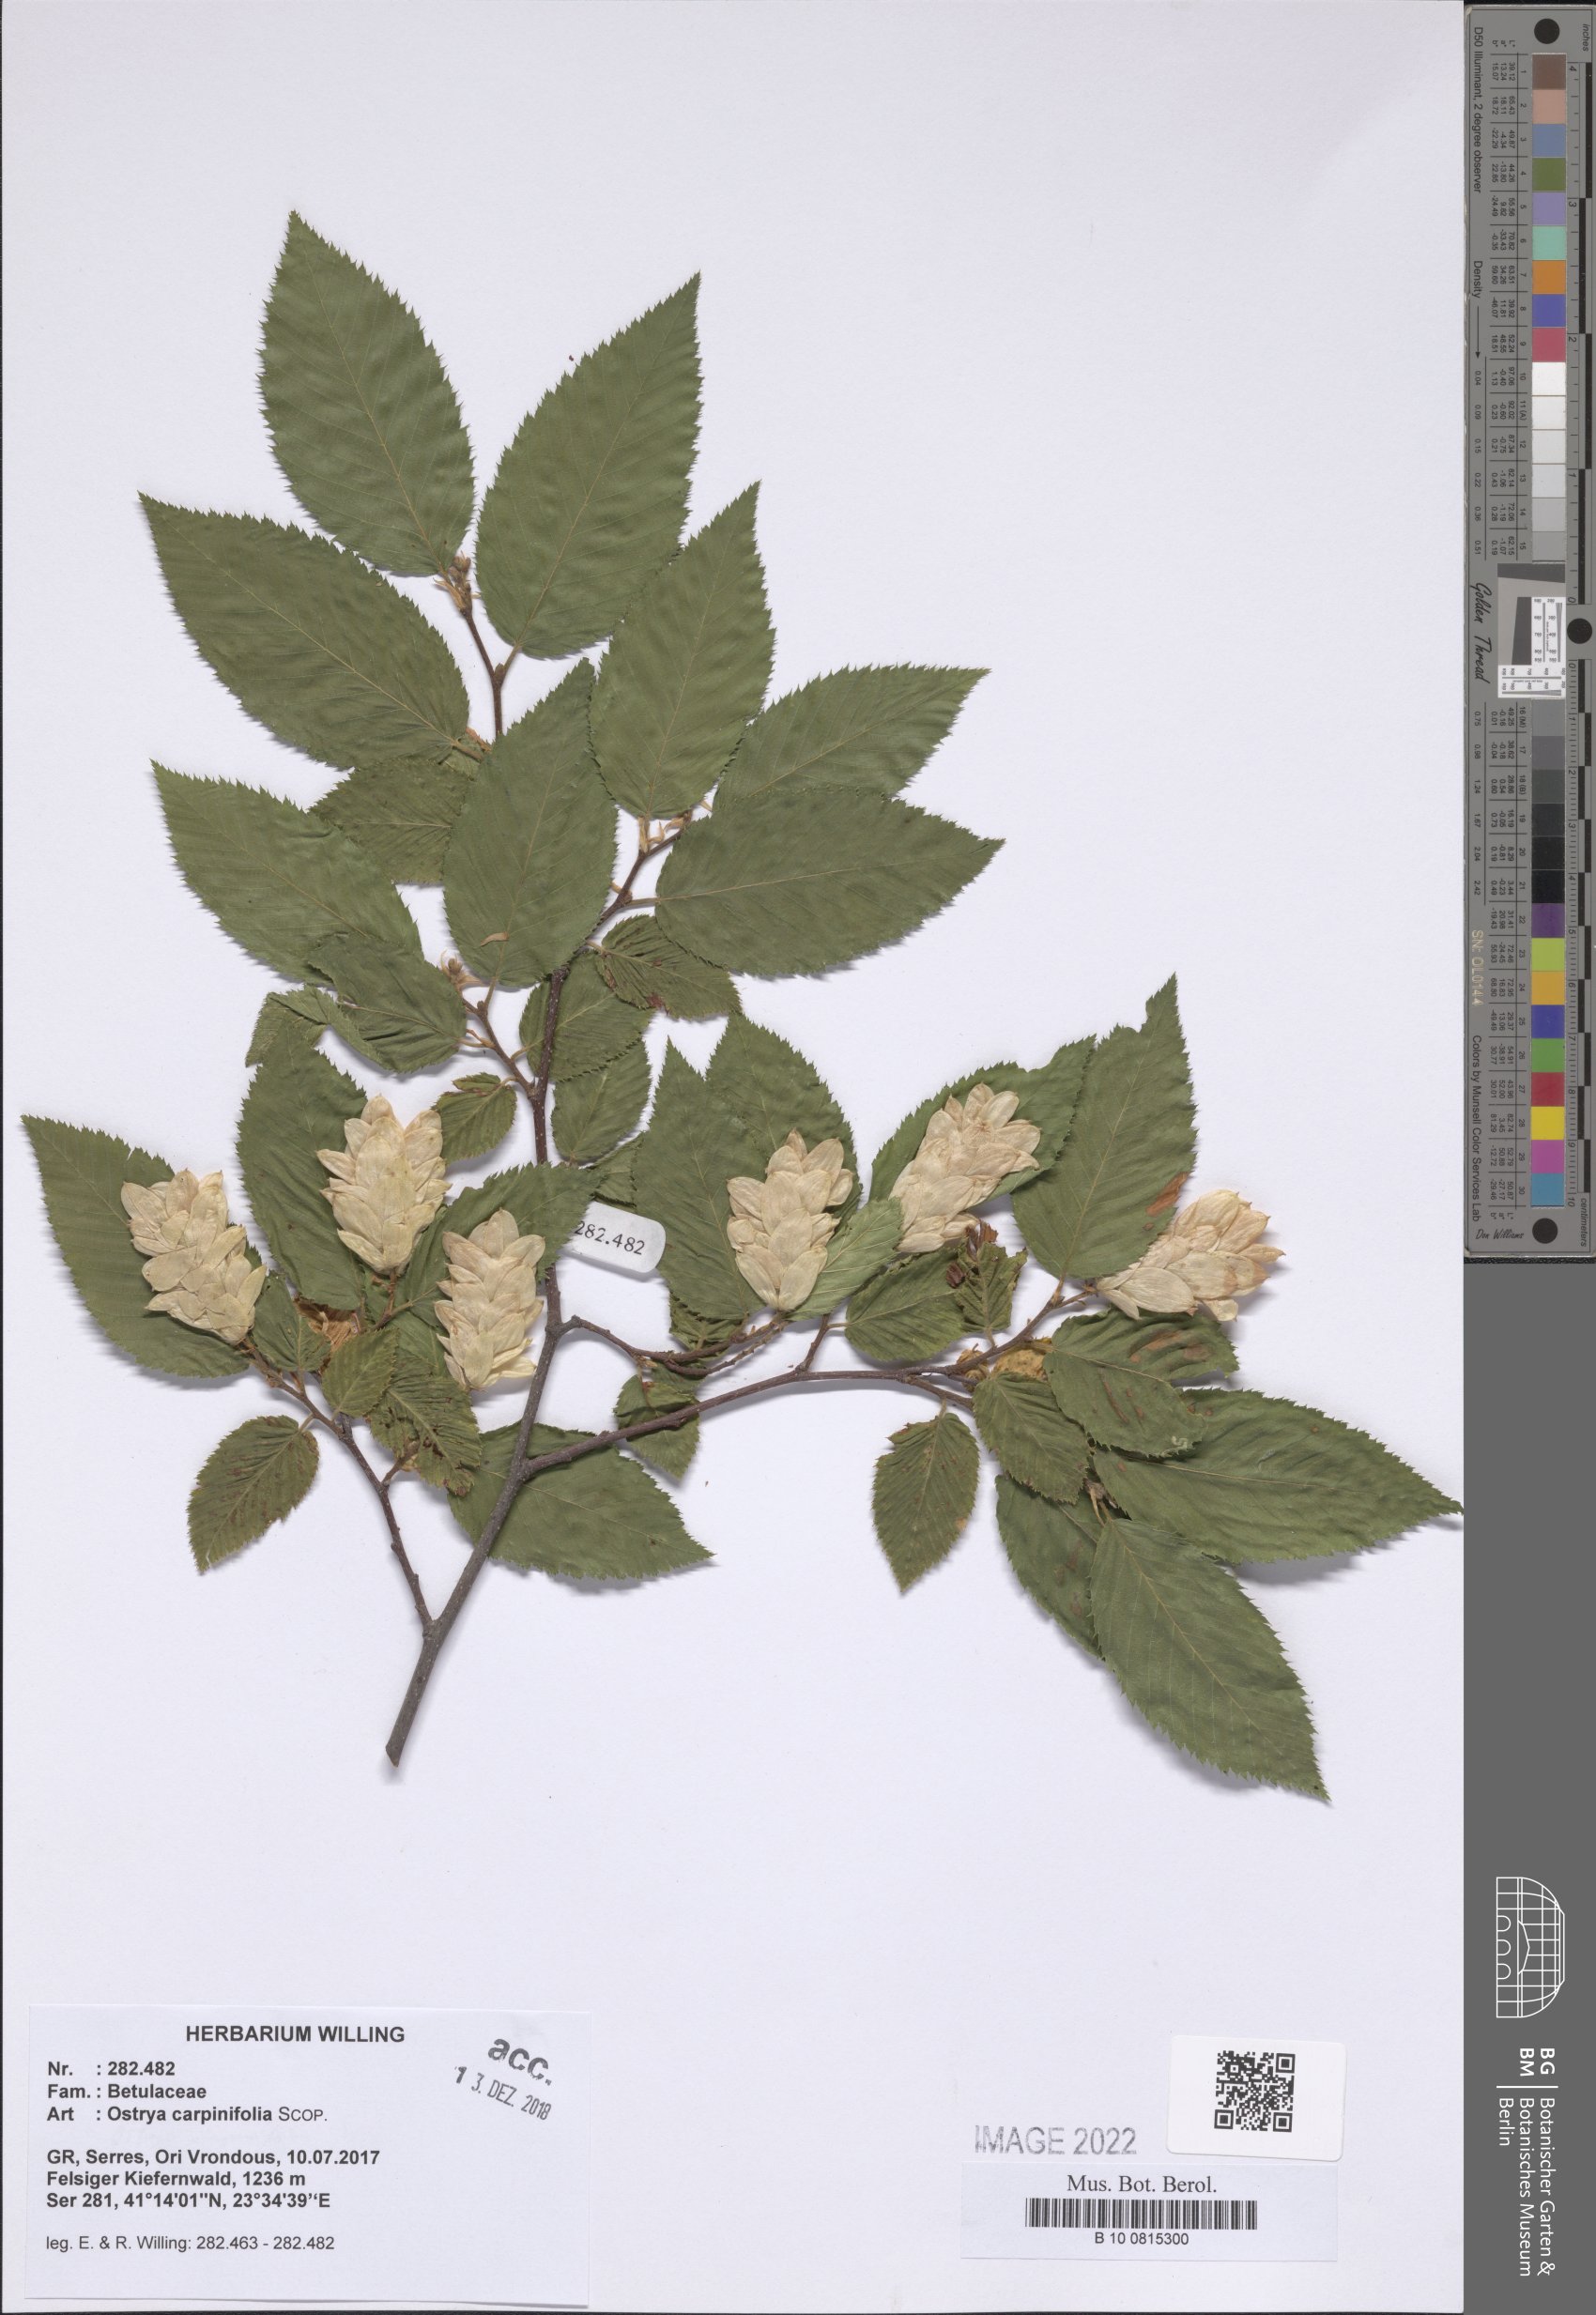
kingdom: Plantae
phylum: Tracheophyta
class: Magnoliopsida
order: Fagales
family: Betulaceae
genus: Ostrya
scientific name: Ostrya carpinifolia
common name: European hop-hornbeam
